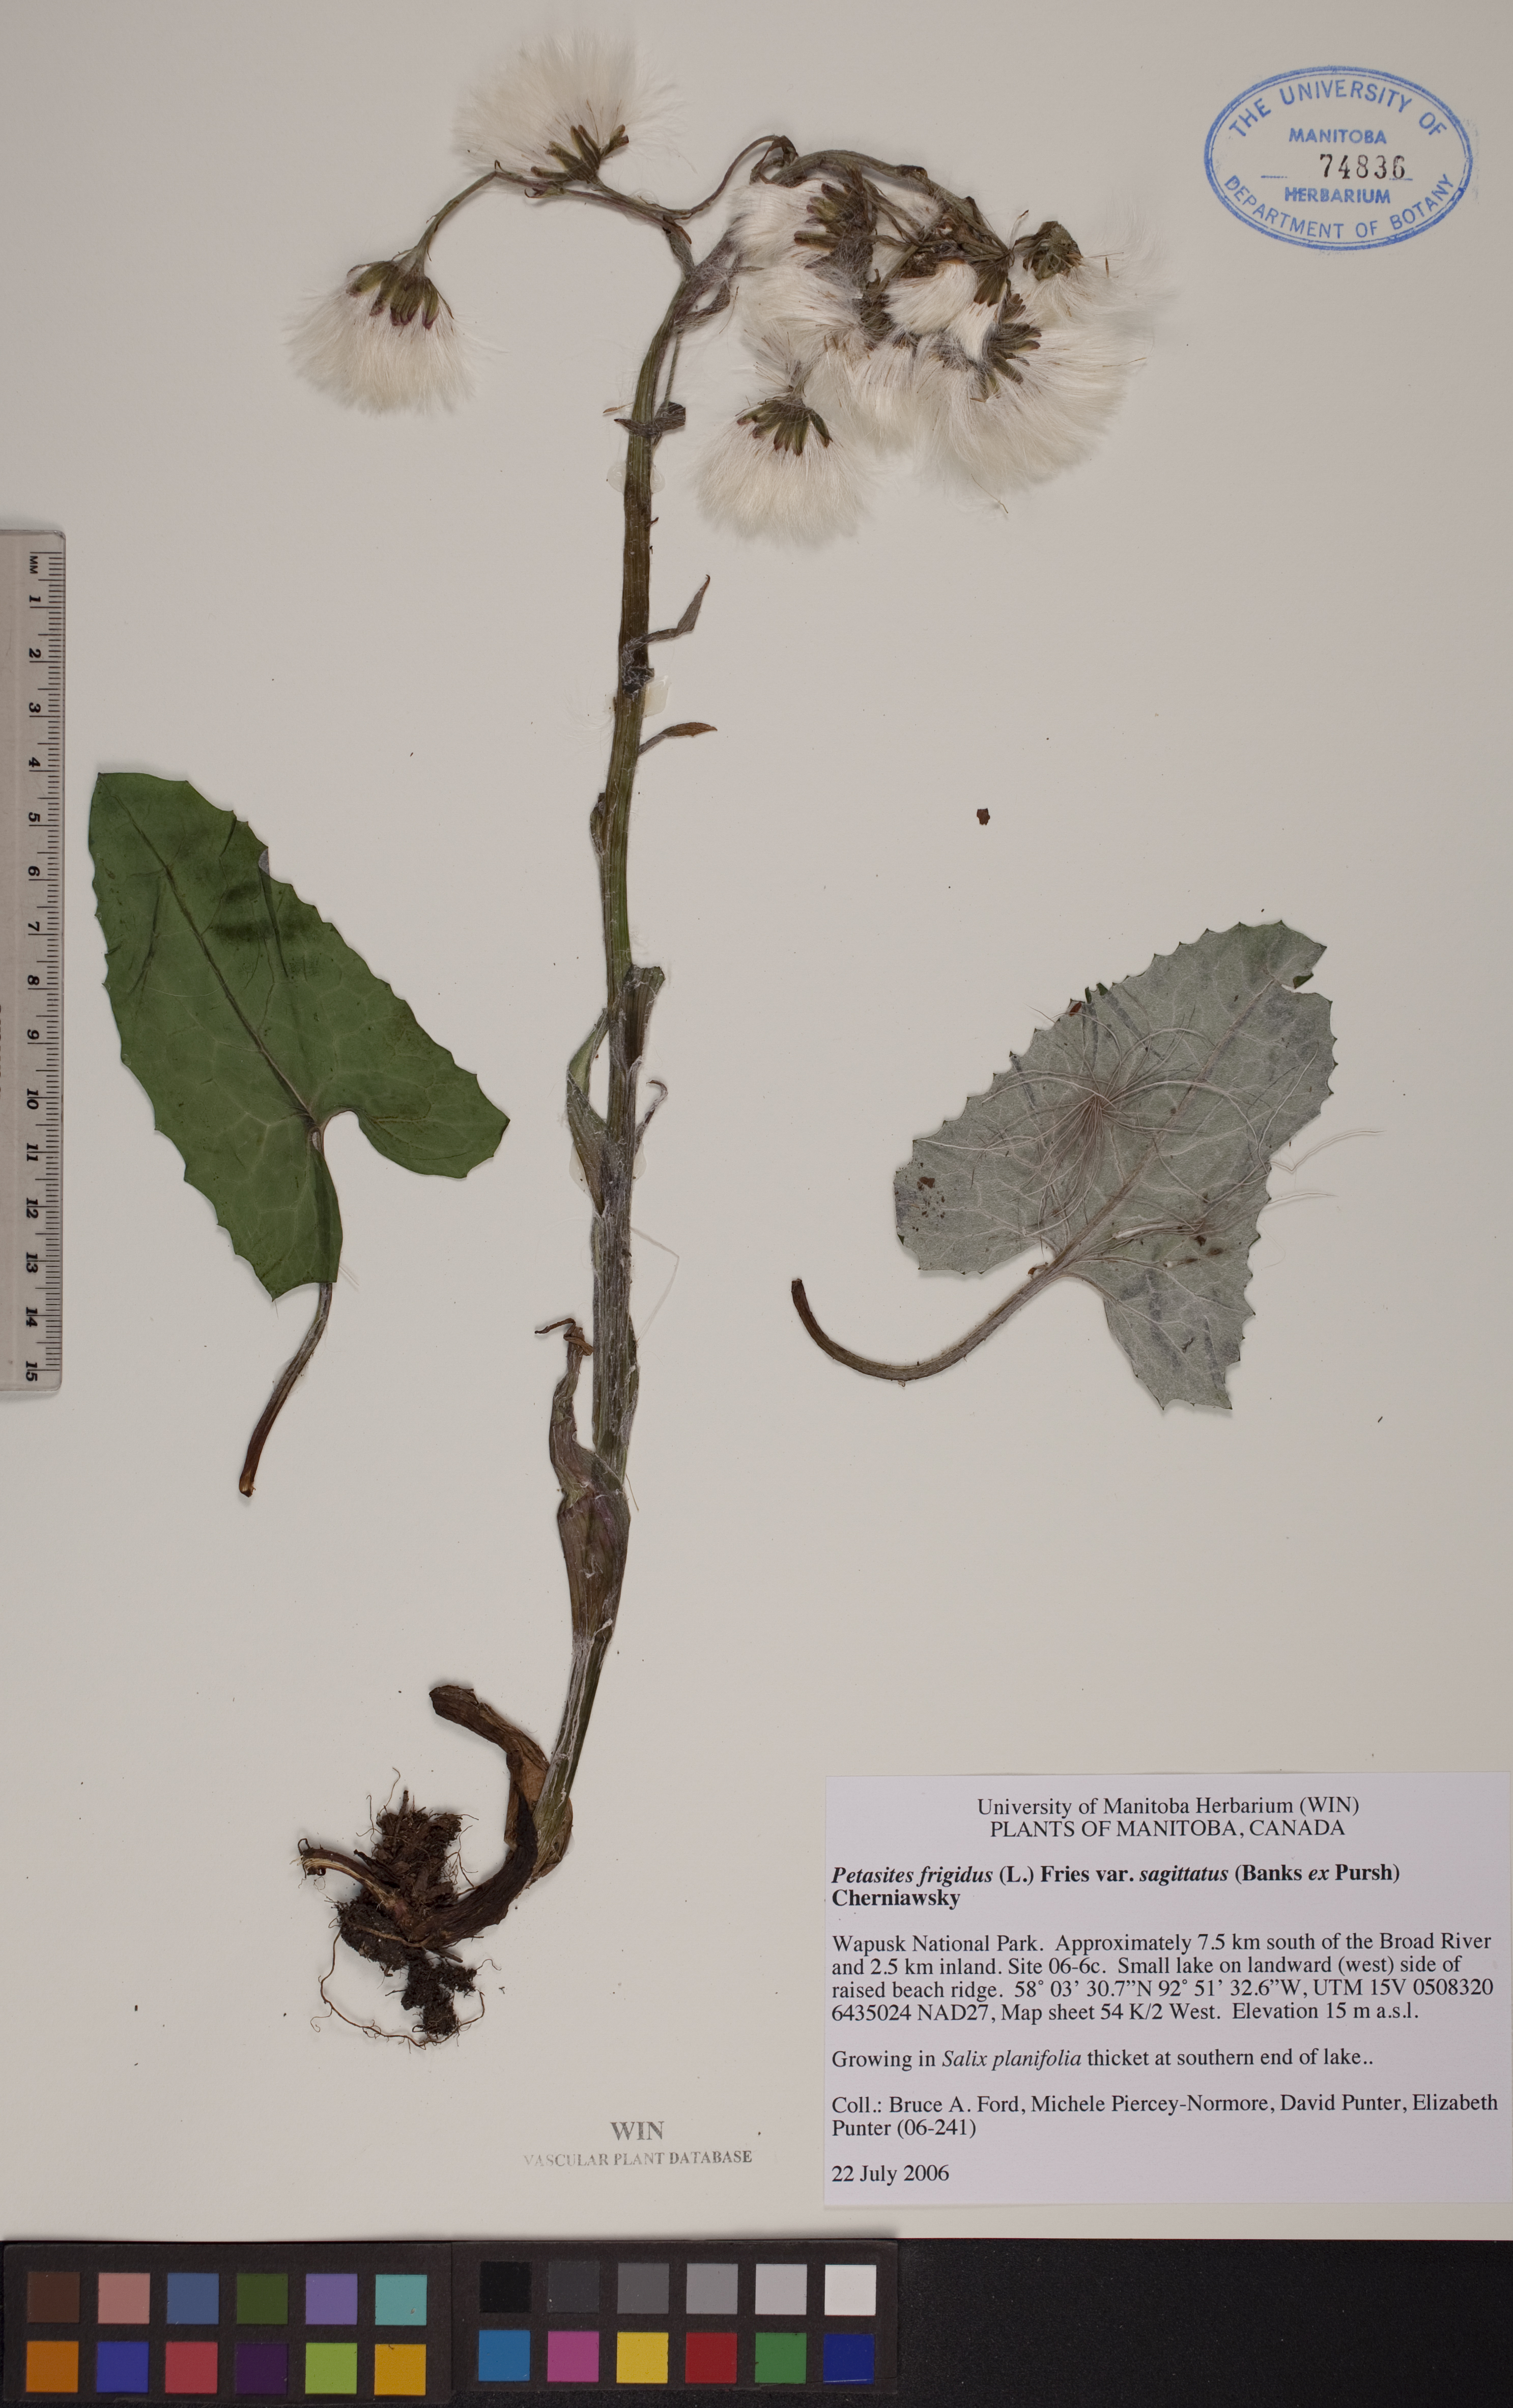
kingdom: Plantae
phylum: Tracheophyta
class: Magnoliopsida
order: Asterales
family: Asteraceae
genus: Petasites
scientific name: Petasites frigidus
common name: Arctic butterbur
